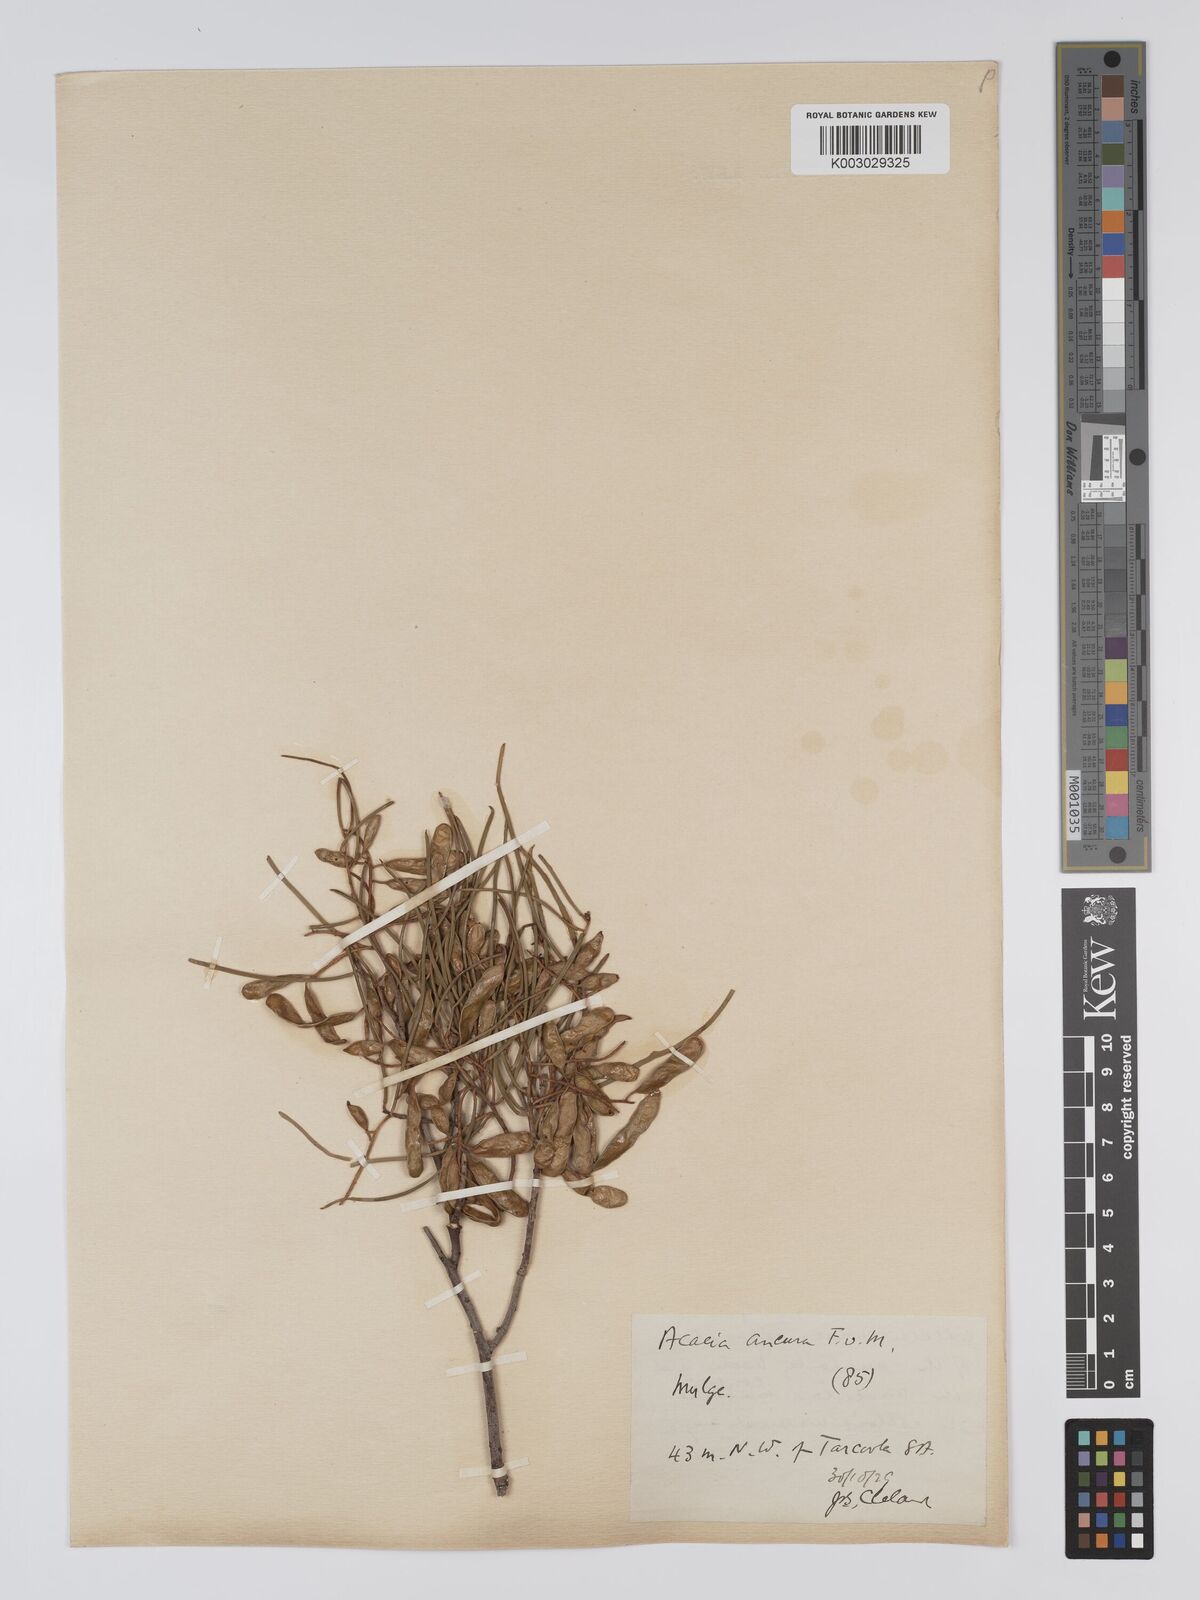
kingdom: Plantae
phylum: Tracheophyta
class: Magnoliopsida
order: Fabales
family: Fabaceae
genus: Acacia
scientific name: Acacia aneura
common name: Mulga
